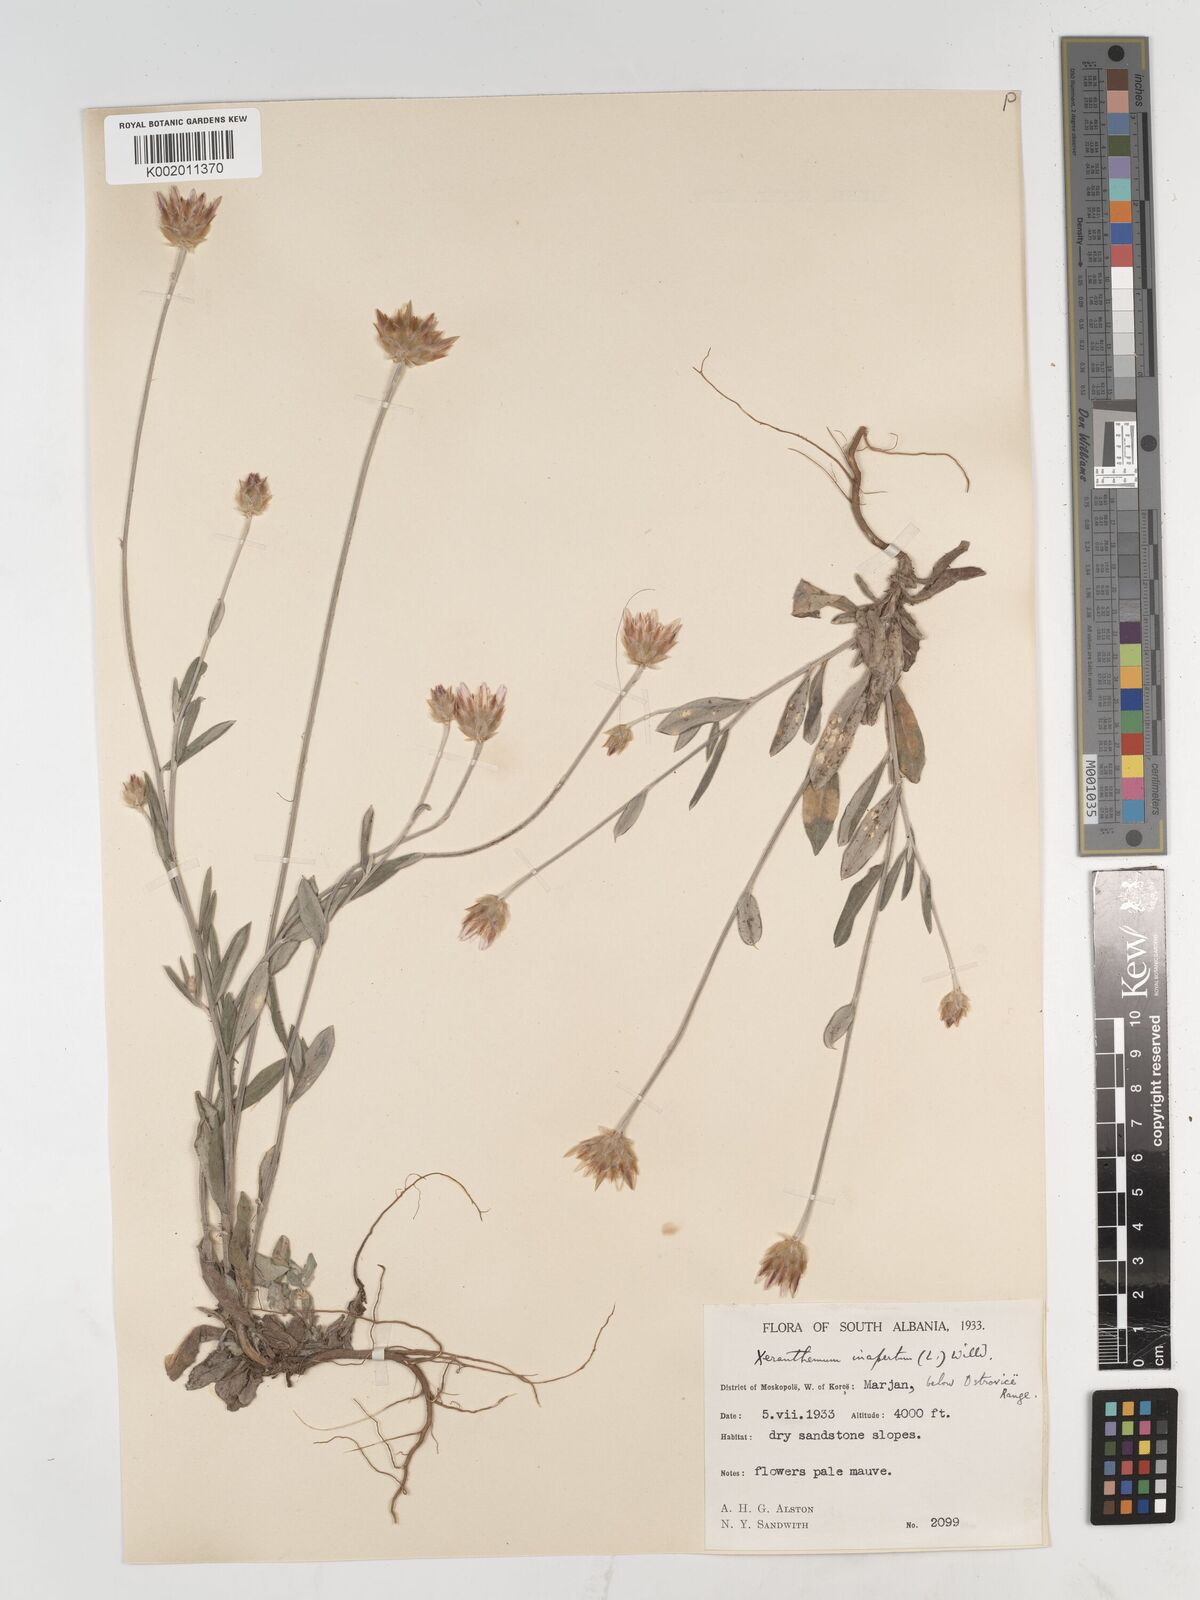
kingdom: Plantae
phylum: Tracheophyta
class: Magnoliopsida
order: Asterales
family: Asteraceae
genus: Xeranthemum
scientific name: Xeranthemum inapertum
